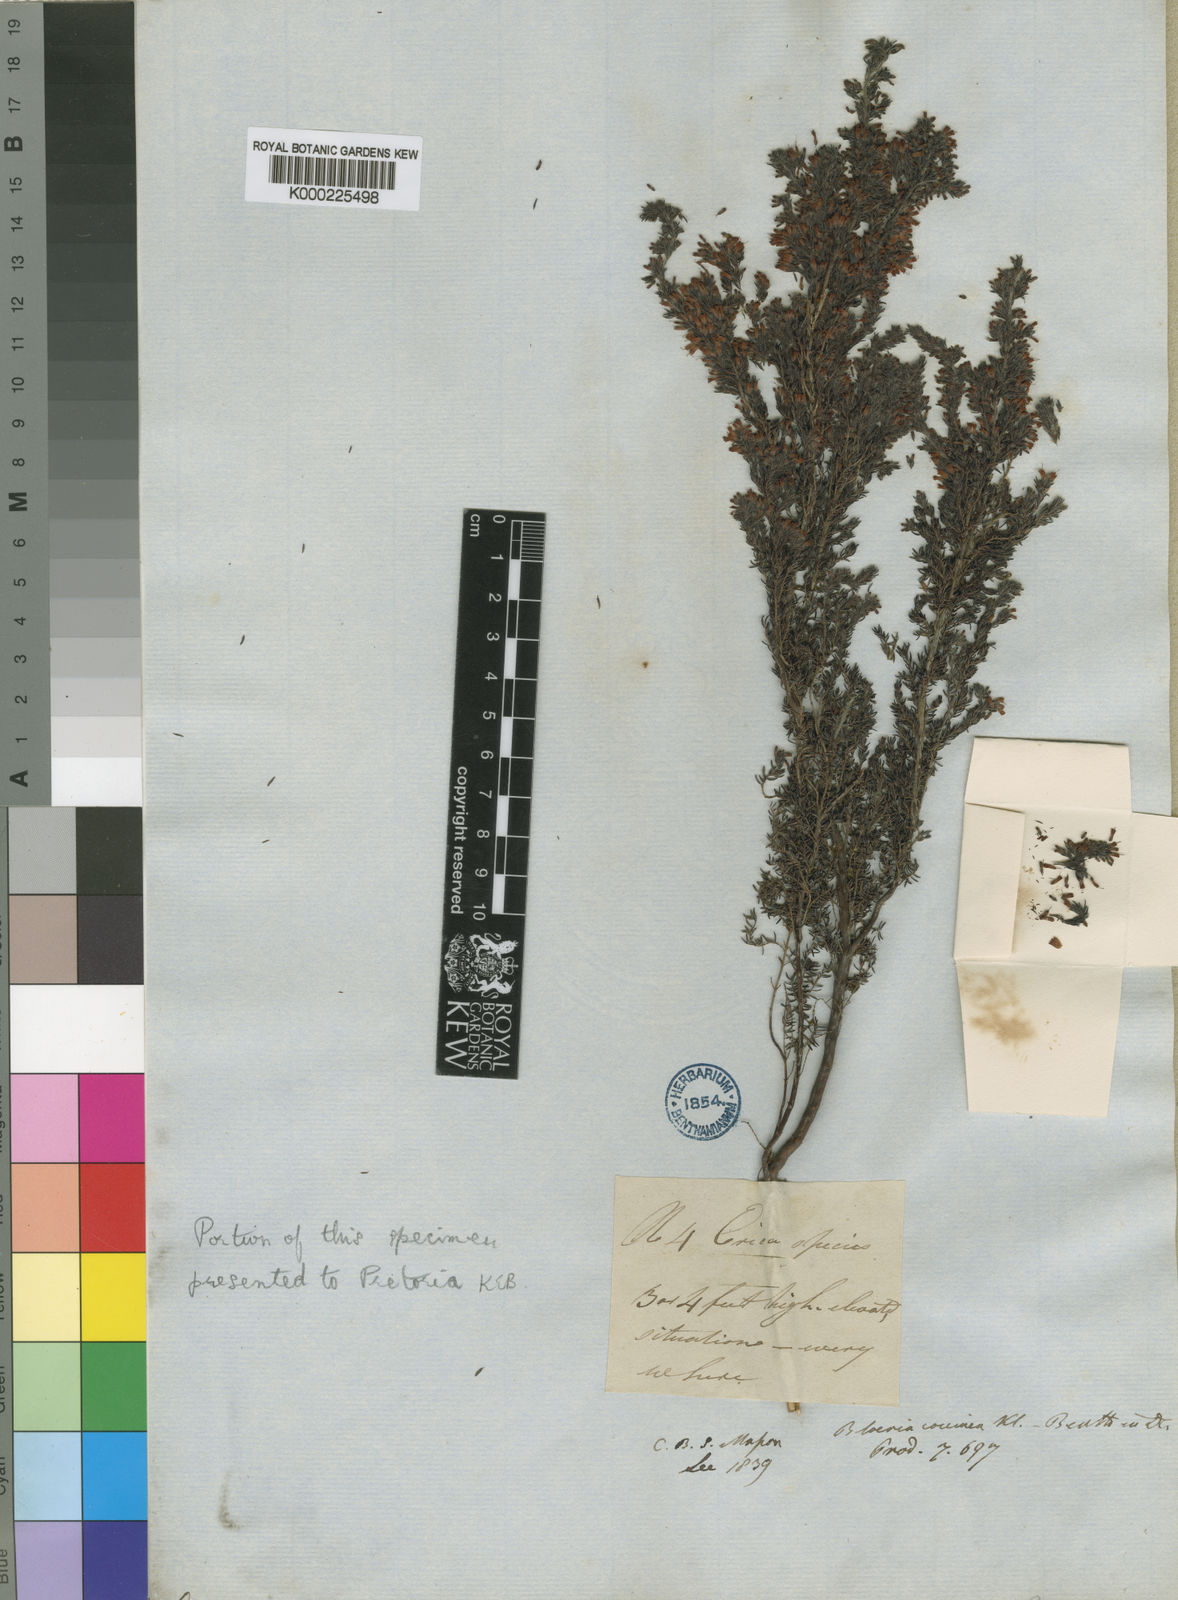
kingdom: Plantae
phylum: Tracheophyta
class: Magnoliopsida
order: Ericales
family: Ericaceae
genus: Erica
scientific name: Erica longimontana
